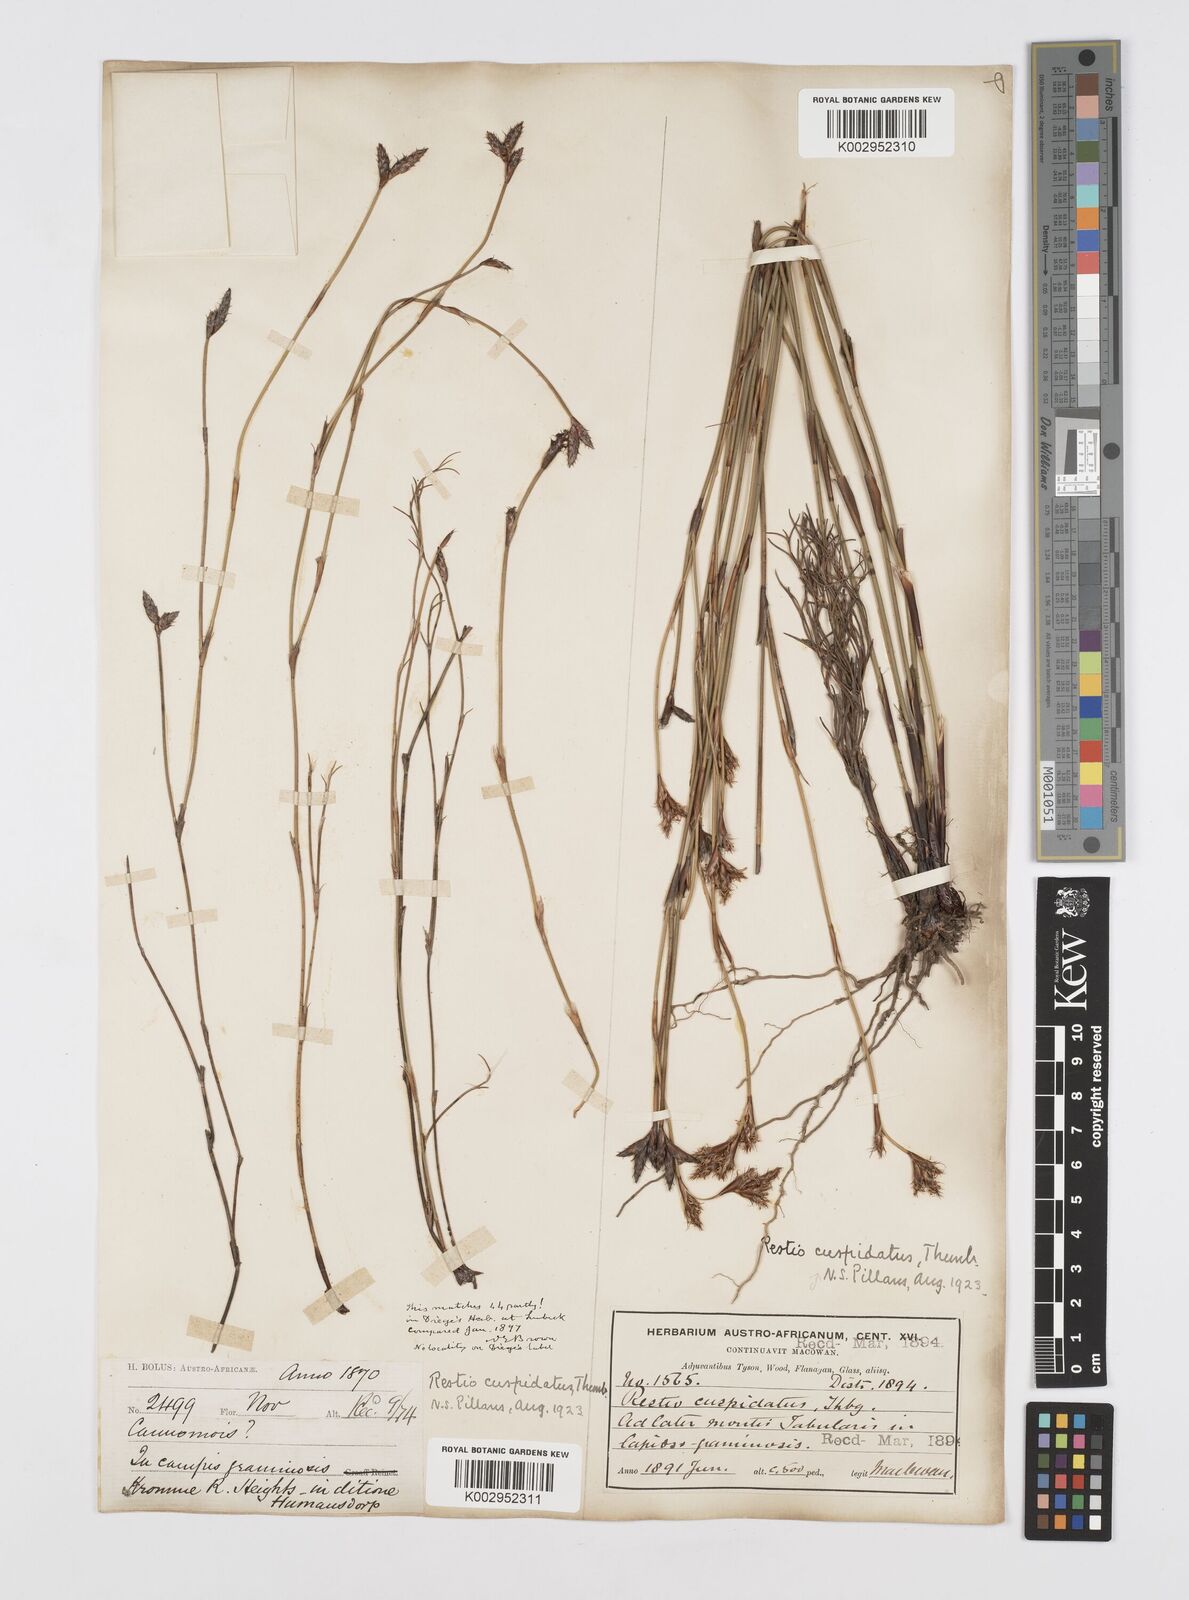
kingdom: Plantae
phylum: Tracheophyta
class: Liliopsida
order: Poales
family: Restionaceae
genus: Restio
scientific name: Restio capensis
